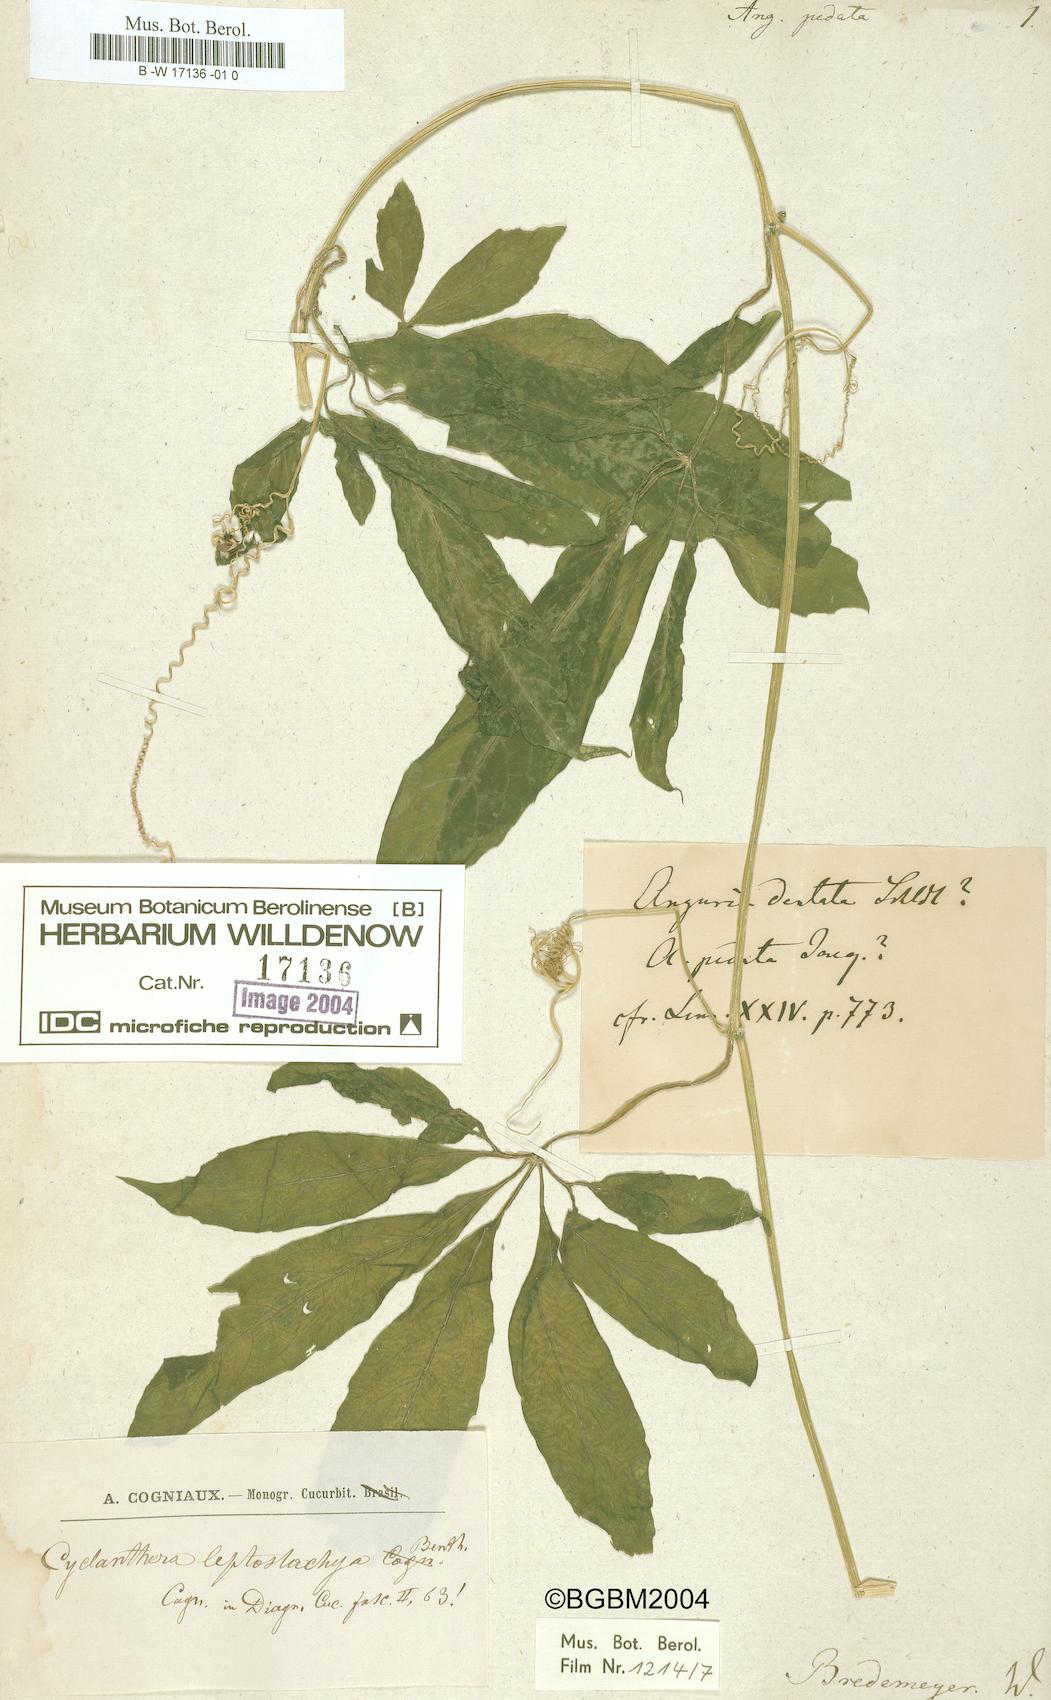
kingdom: Plantae
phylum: Tracheophyta
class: Magnoliopsida
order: Cucurbitales
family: Cucurbitaceae
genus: Psiguria
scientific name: Psiguria pedata
